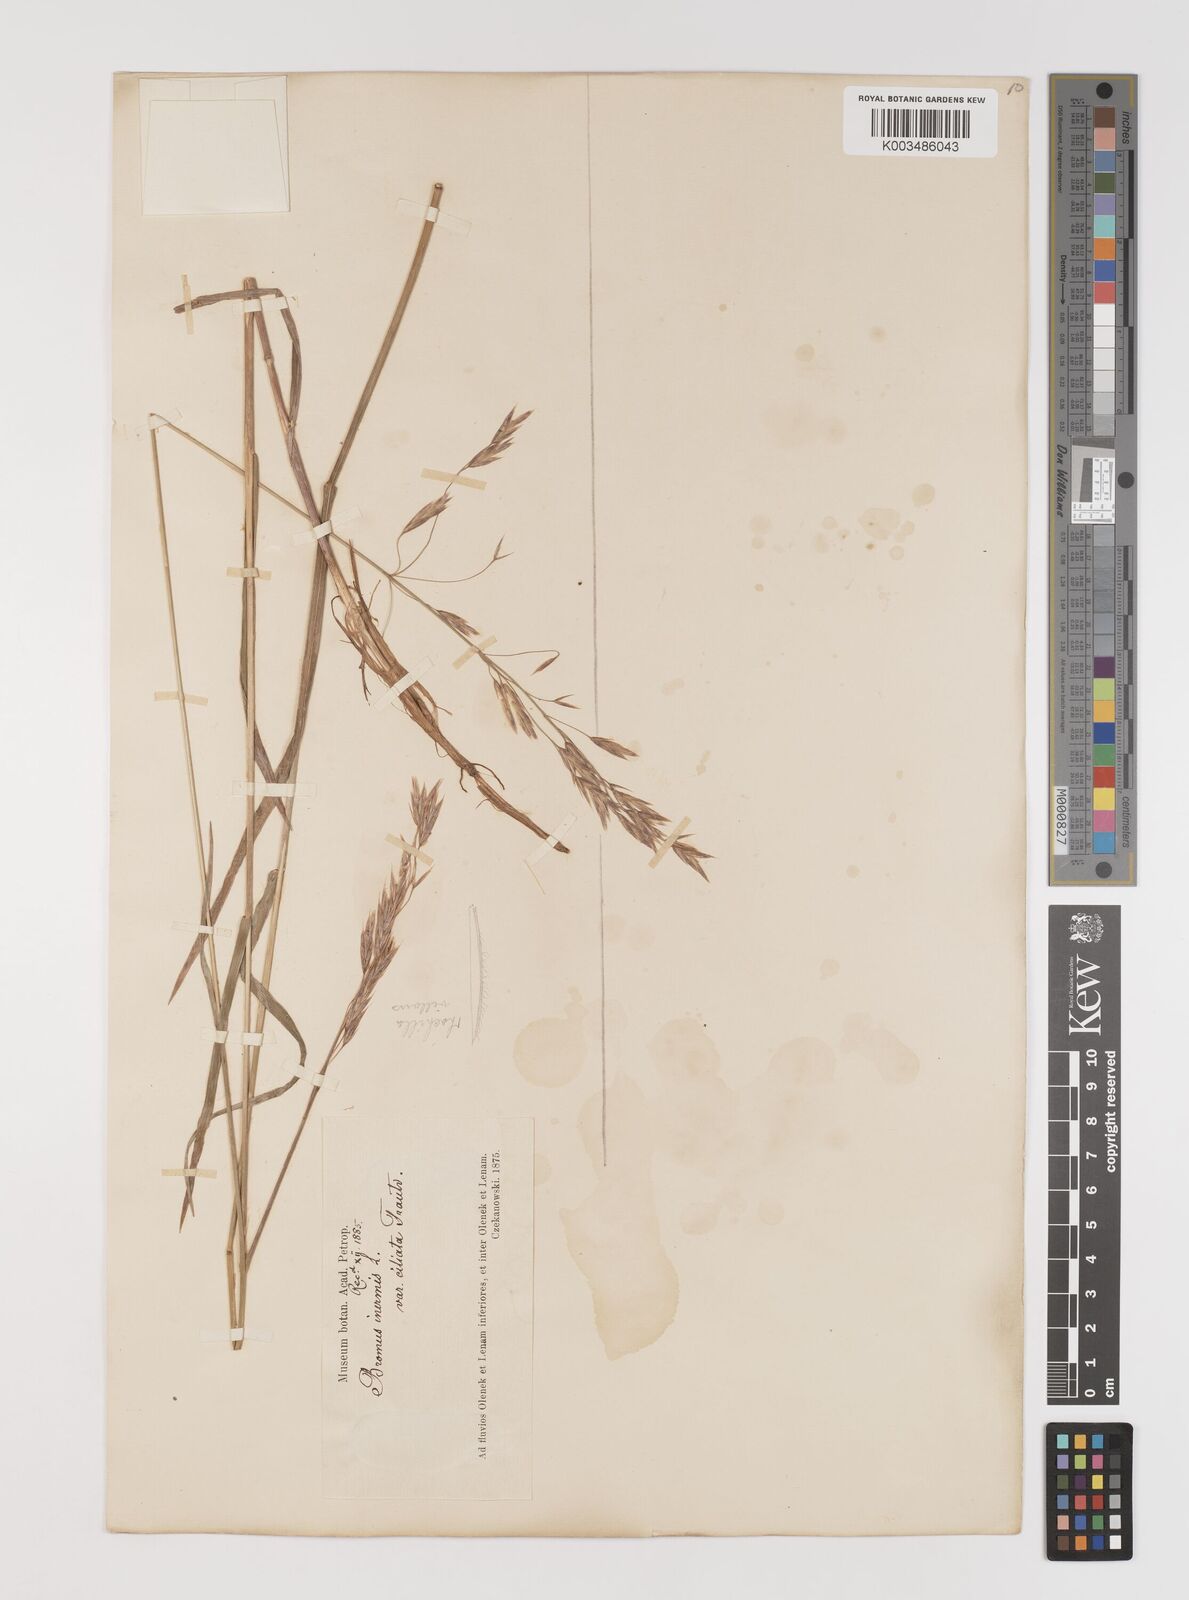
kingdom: Plantae
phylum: Tracheophyta
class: Liliopsida
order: Poales
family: Poaceae
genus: Bromus
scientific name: Bromus inermis
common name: Smooth brome
